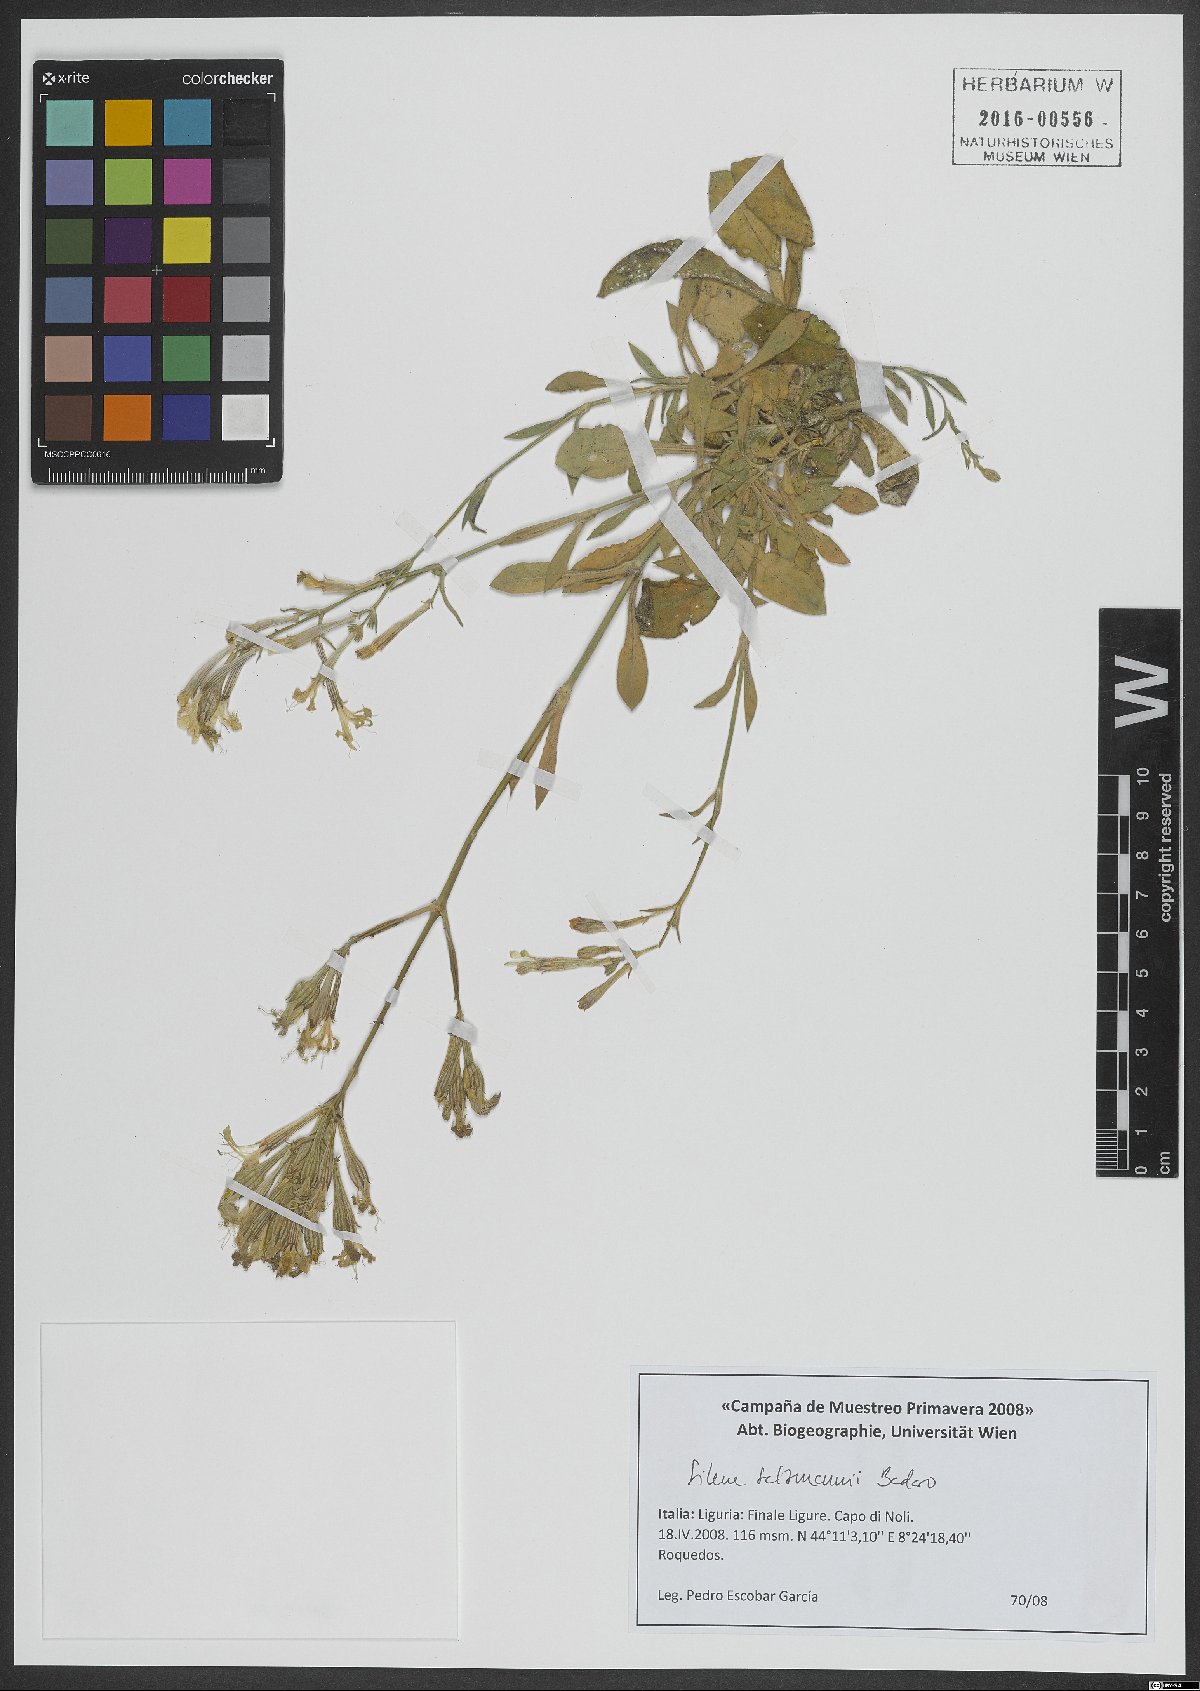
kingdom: Plantae
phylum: Tracheophyta
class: Magnoliopsida
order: Caryophyllales
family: Caryophyllaceae
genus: Silene
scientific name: Silene badaroi
